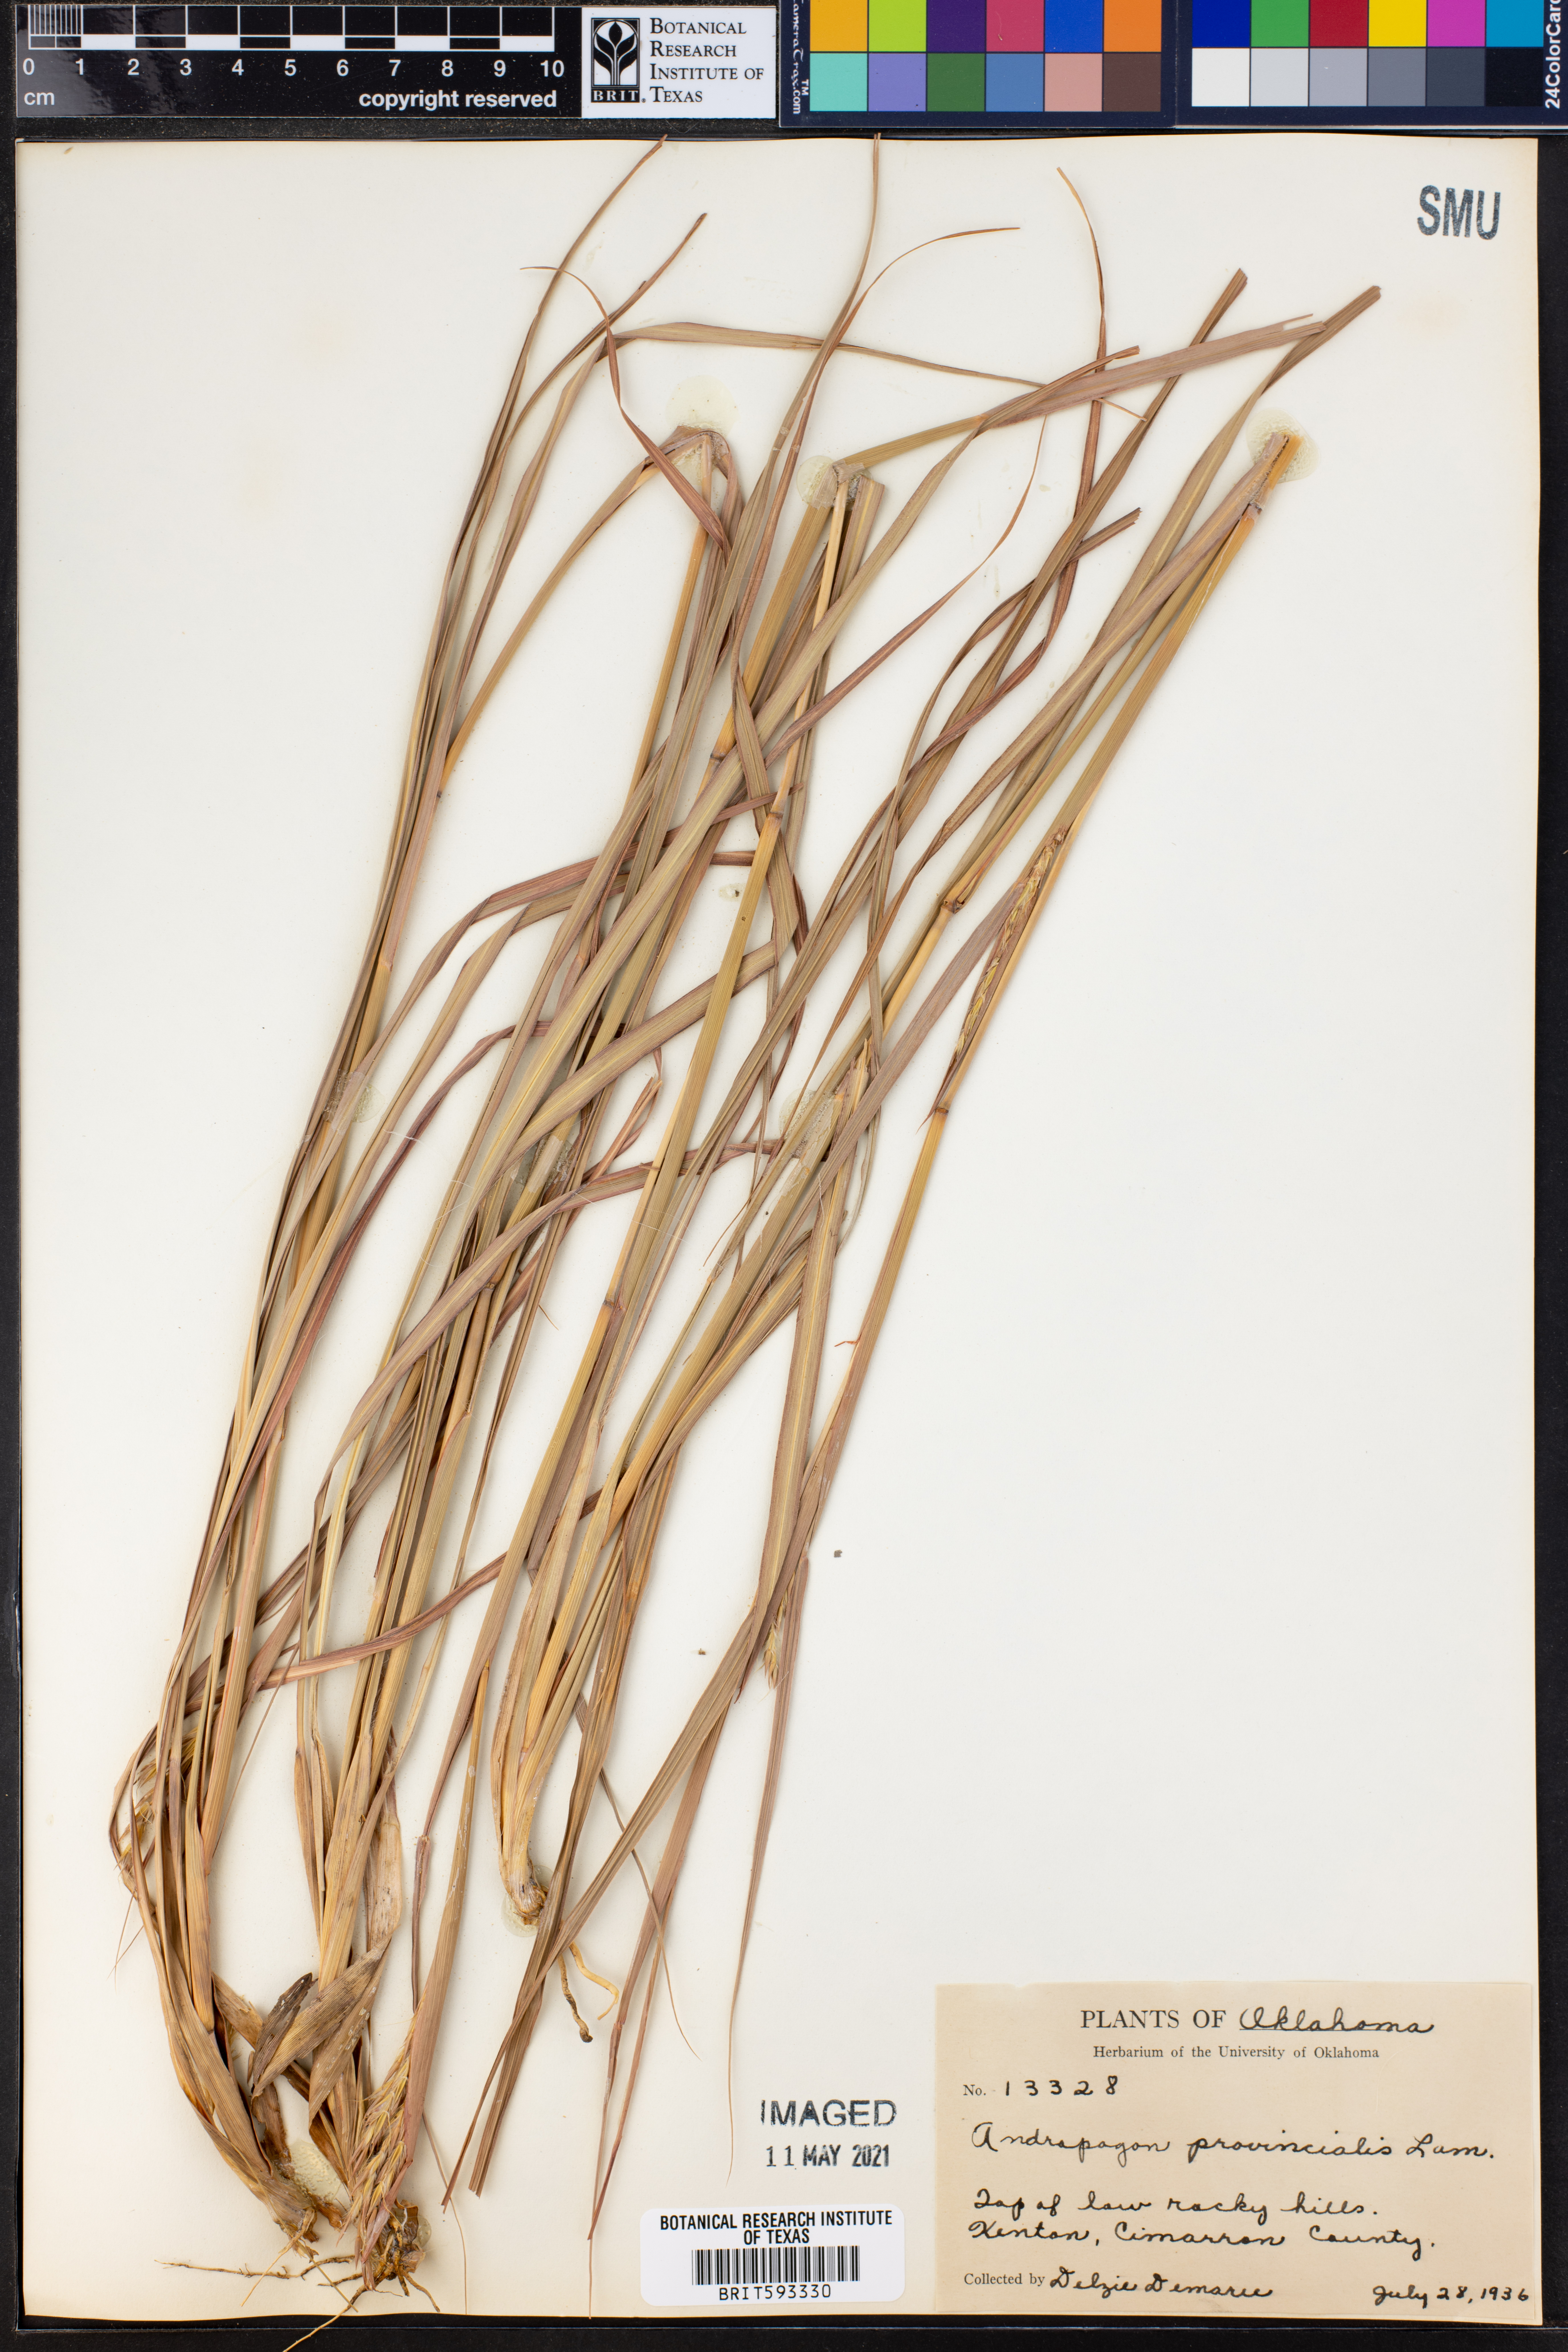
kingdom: Plantae
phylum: Tracheophyta
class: Liliopsida
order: Poales
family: Poaceae
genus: Andropogon
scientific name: Andropogon gerardi
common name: Big bluestem
